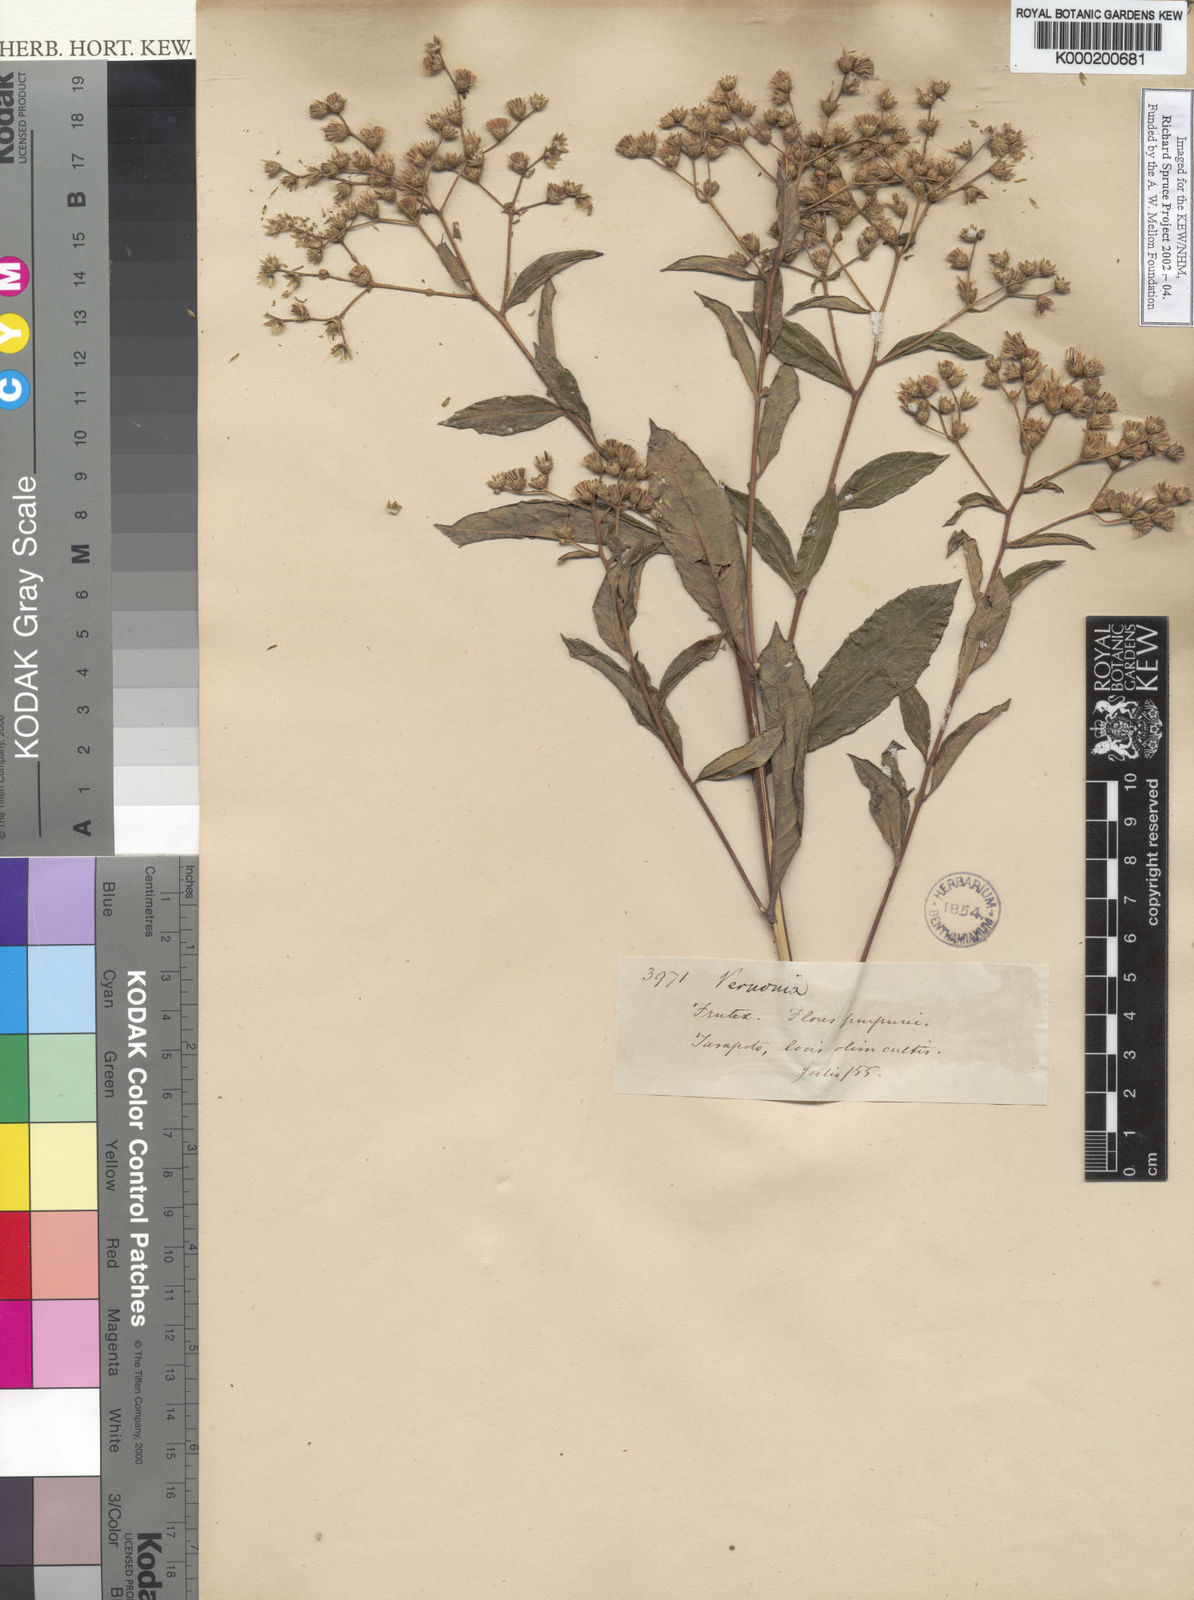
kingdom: Plantae
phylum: Tracheophyta
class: Magnoliopsida
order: Asterales
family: Asteraceae
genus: Vernonia
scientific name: Vernonia
